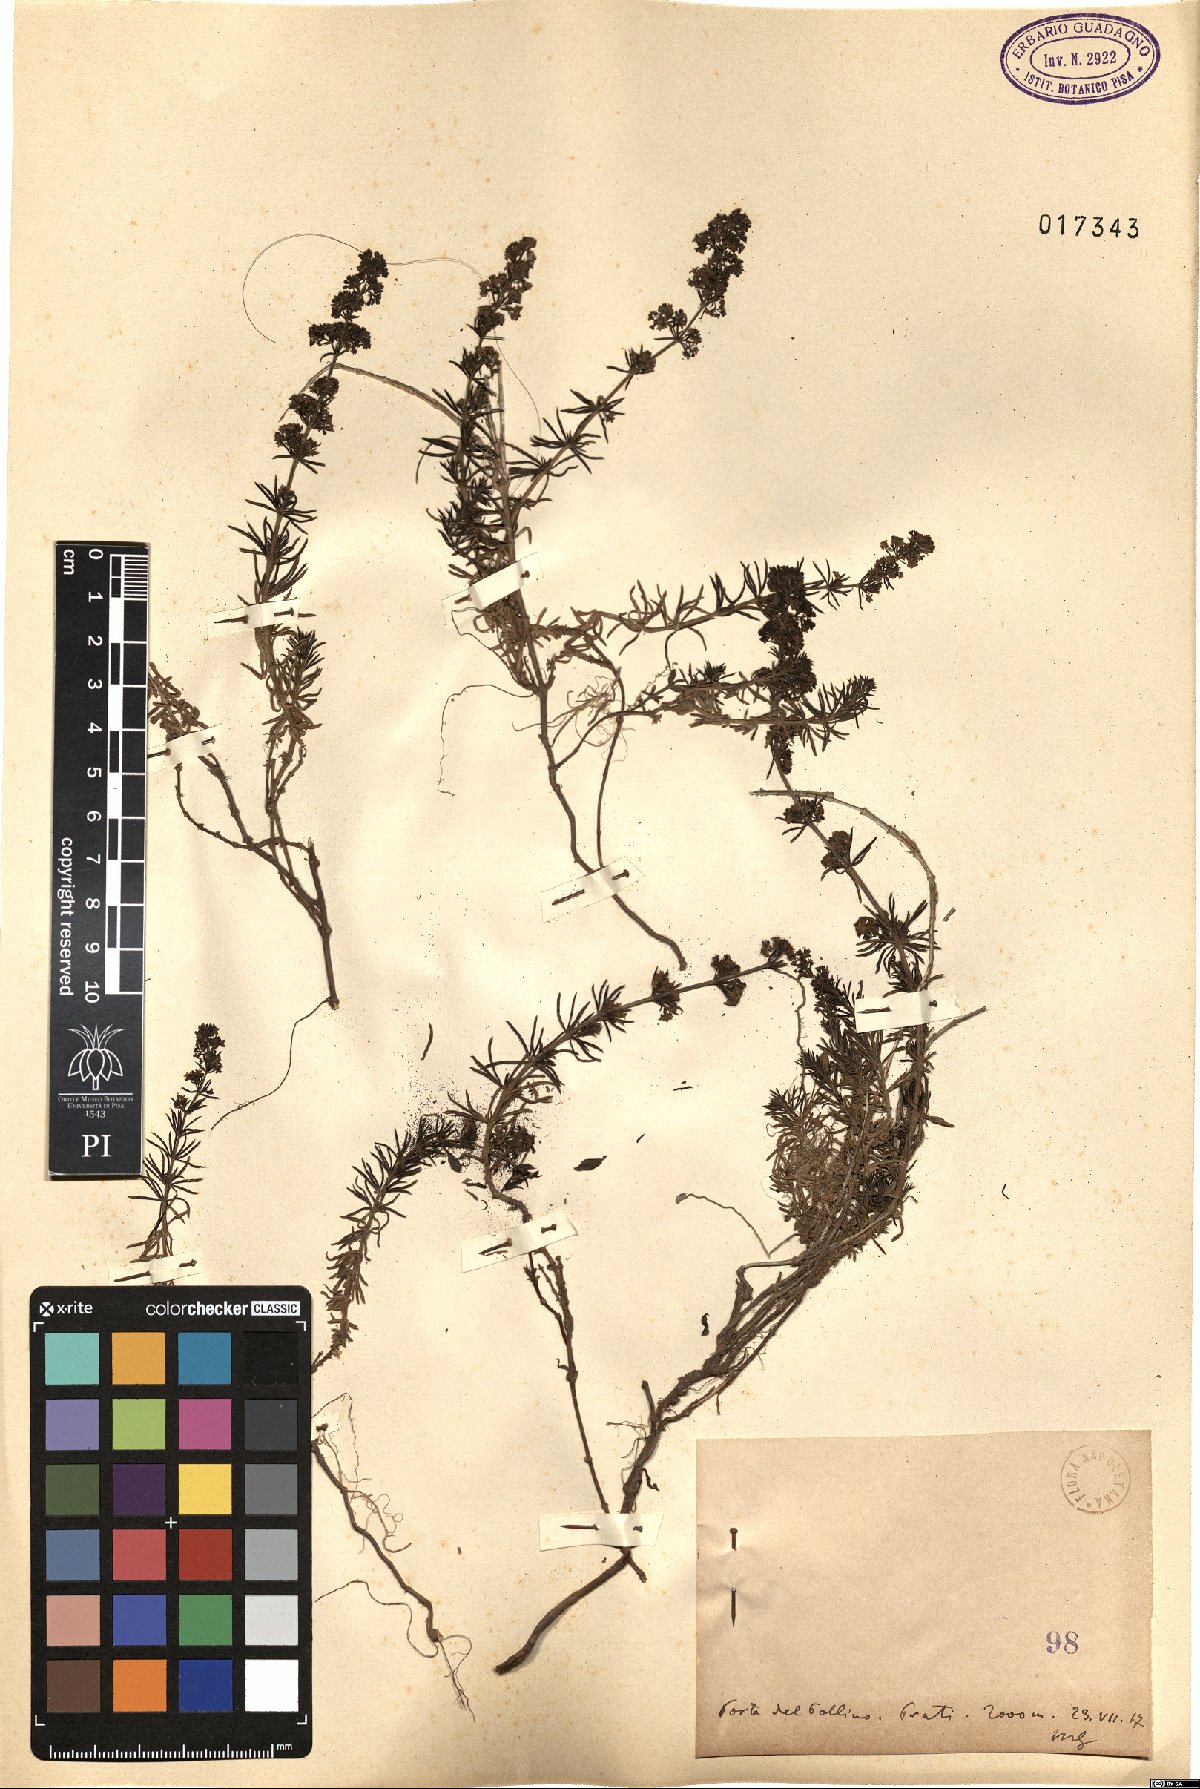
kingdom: Plantae
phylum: Tracheophyta
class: Magnoliopsida
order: Gentianales
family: Rubiaceae
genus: Galium
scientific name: Galium
